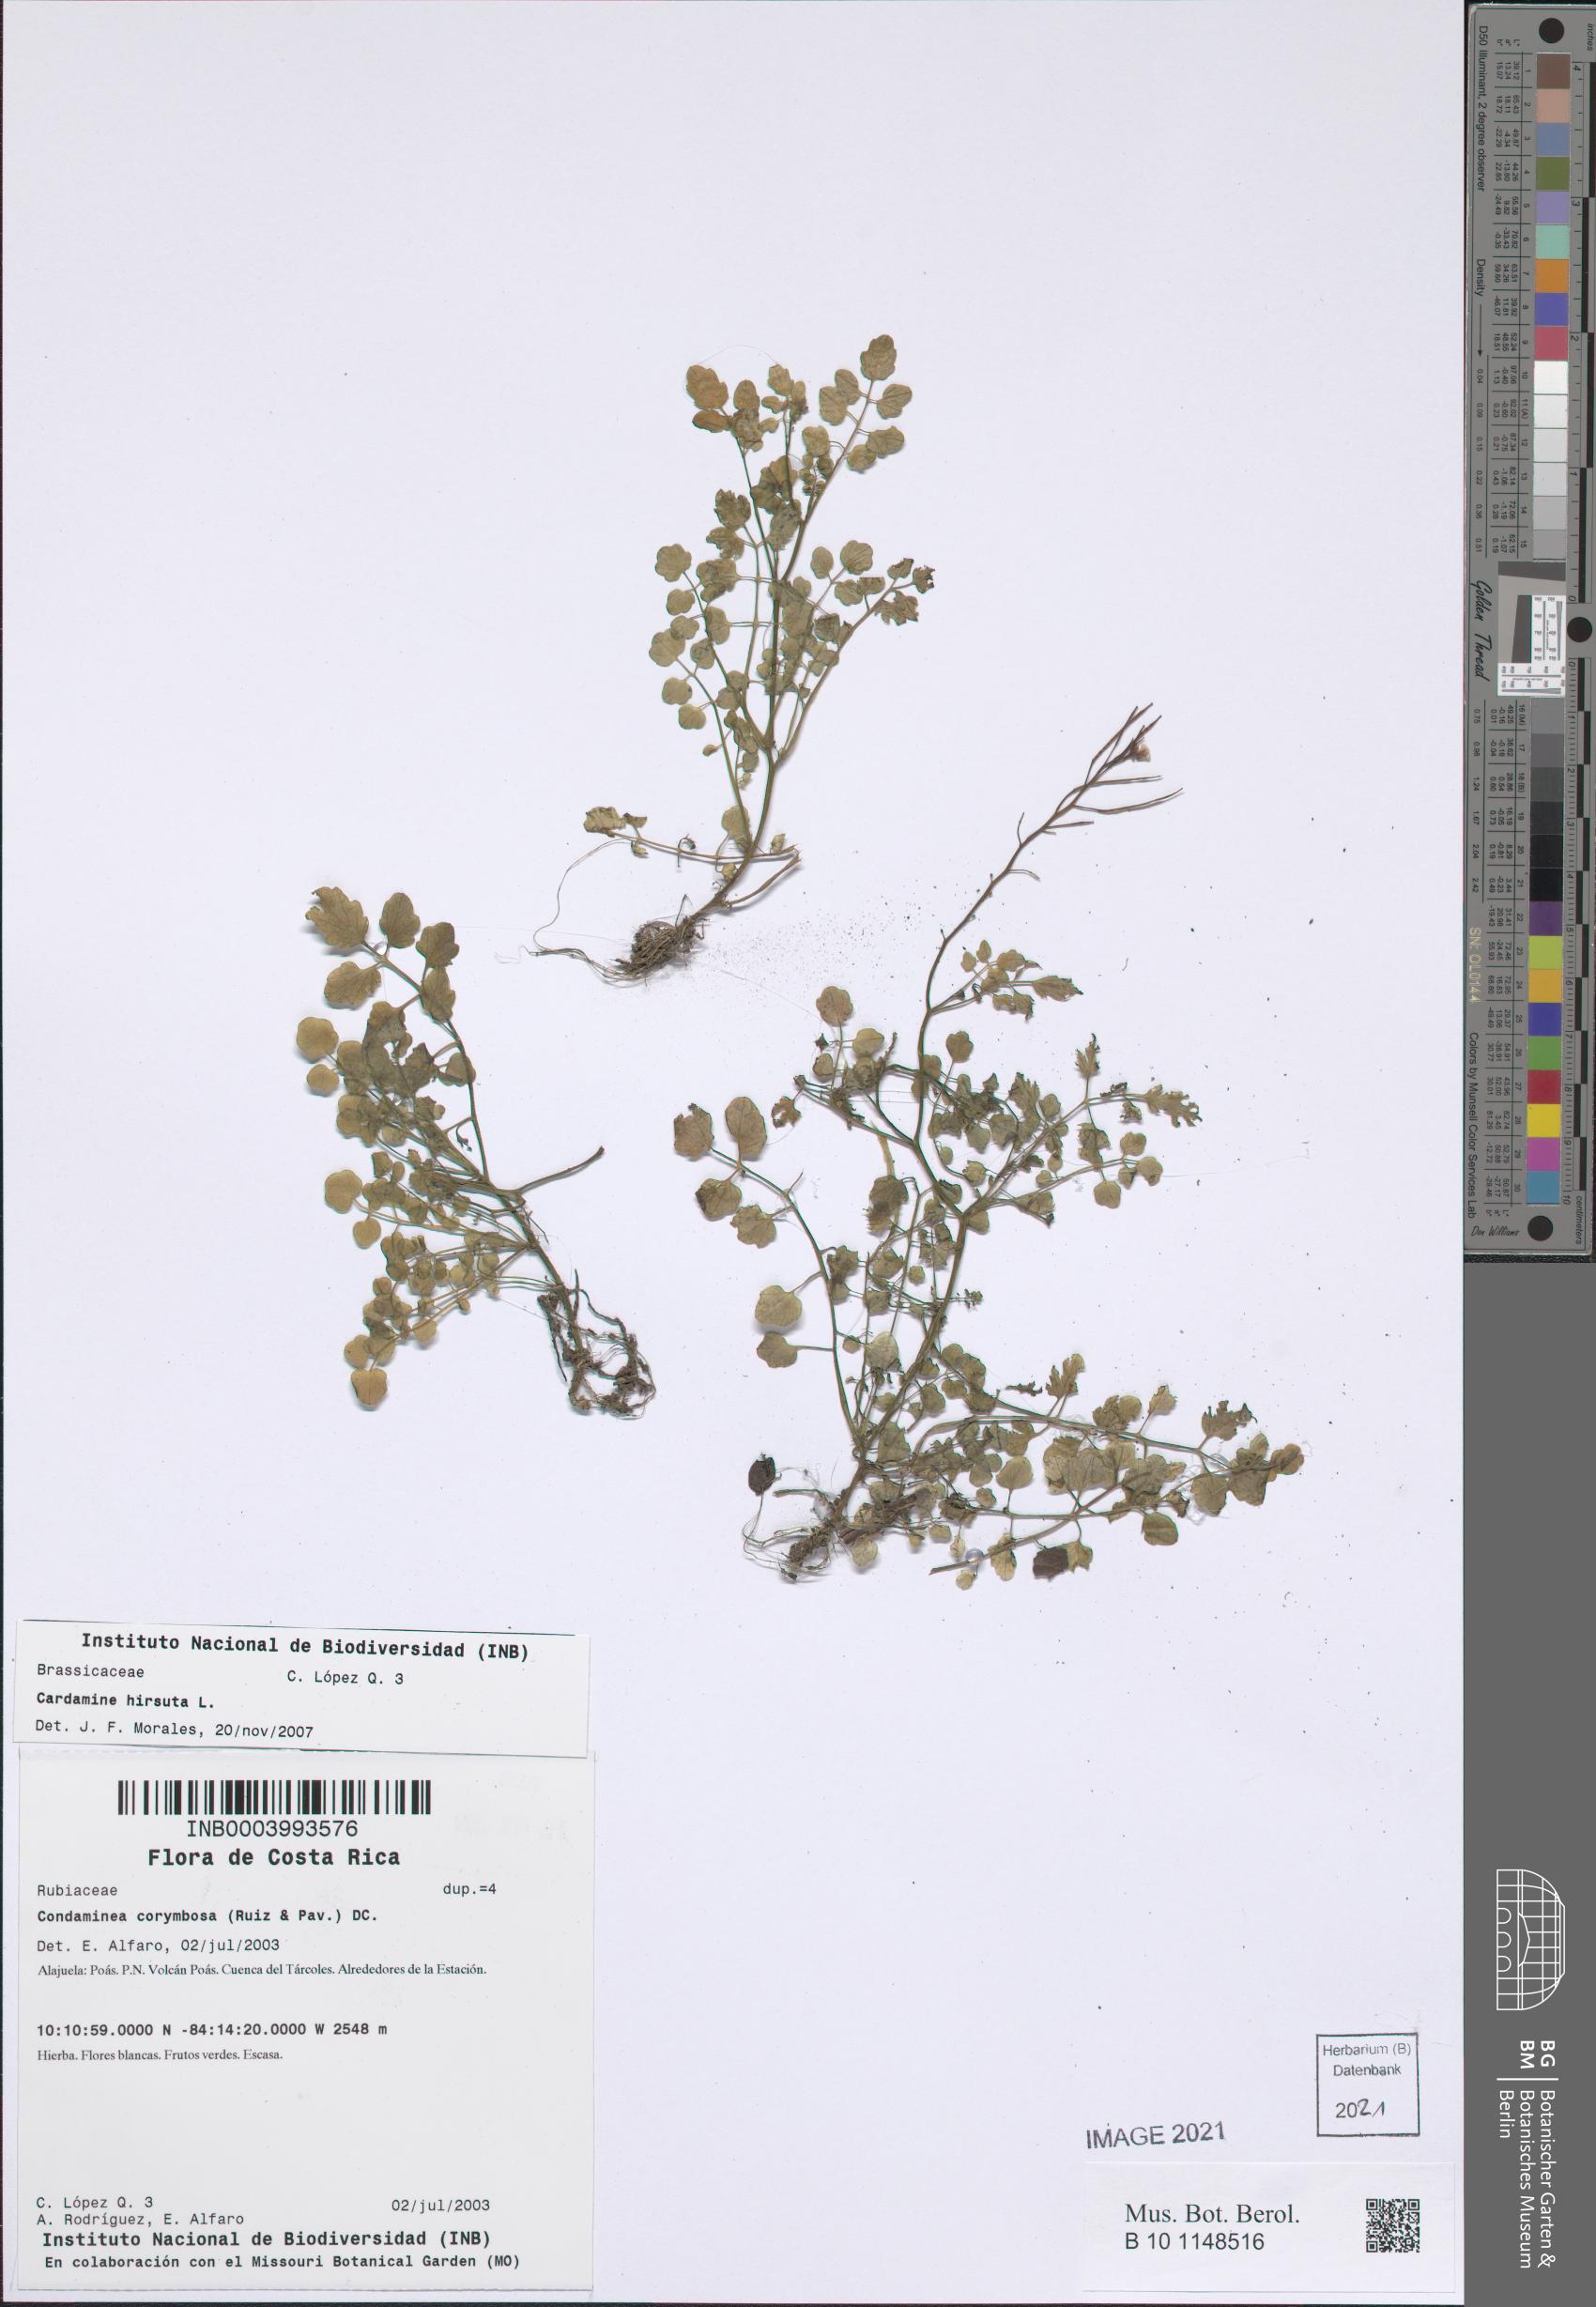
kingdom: Plantae
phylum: Tracheophyta
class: Magnoliopsida
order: Brassicales
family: Brassicaceae
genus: Cardamine
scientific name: Cardamine flexuosa
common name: Woodland bittercress
